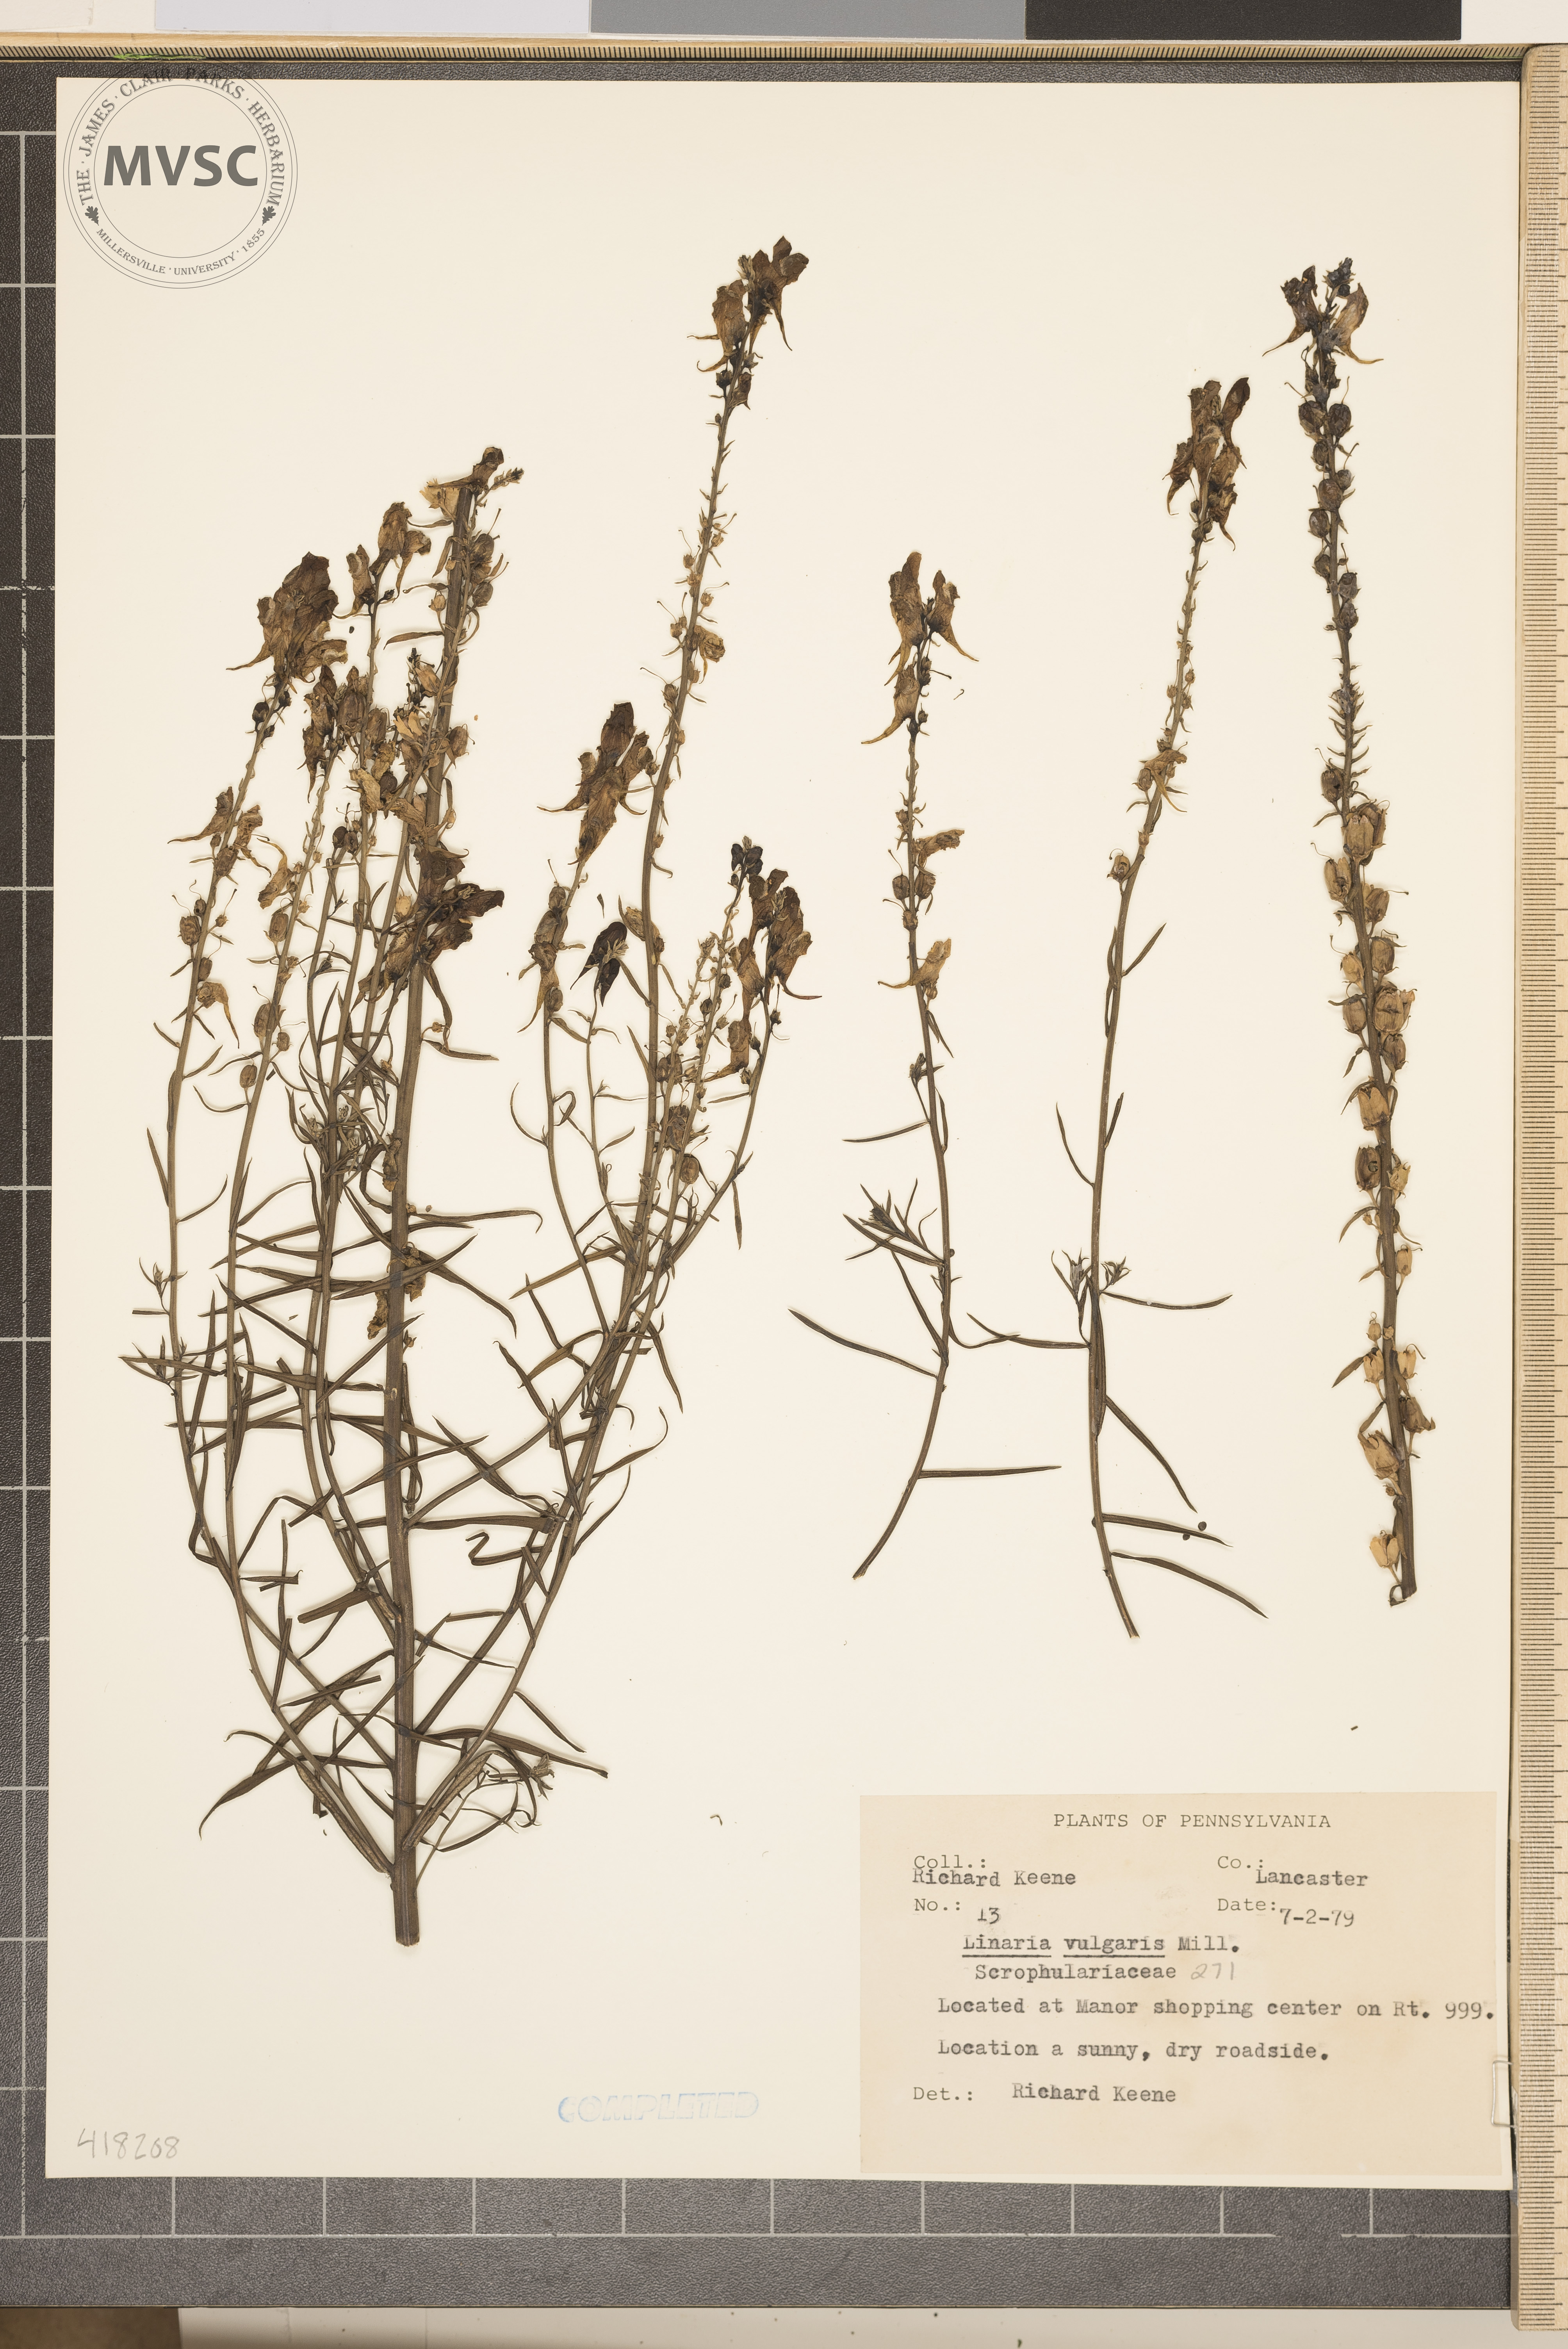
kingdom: Plantae
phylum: Tracheophyta
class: Magnoliopsida
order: Lamiales
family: Plantaginaceae
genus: Linaria
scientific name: Linaria vulgaris
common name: Common Toadflax
